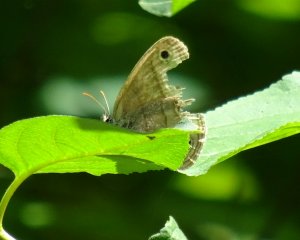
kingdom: Animalia
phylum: Arthropoda
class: Insecta
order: Lepidoptera
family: Nymphalidae
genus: Euptychia
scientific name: Euptychia cymela
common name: Little Wood Satyr
